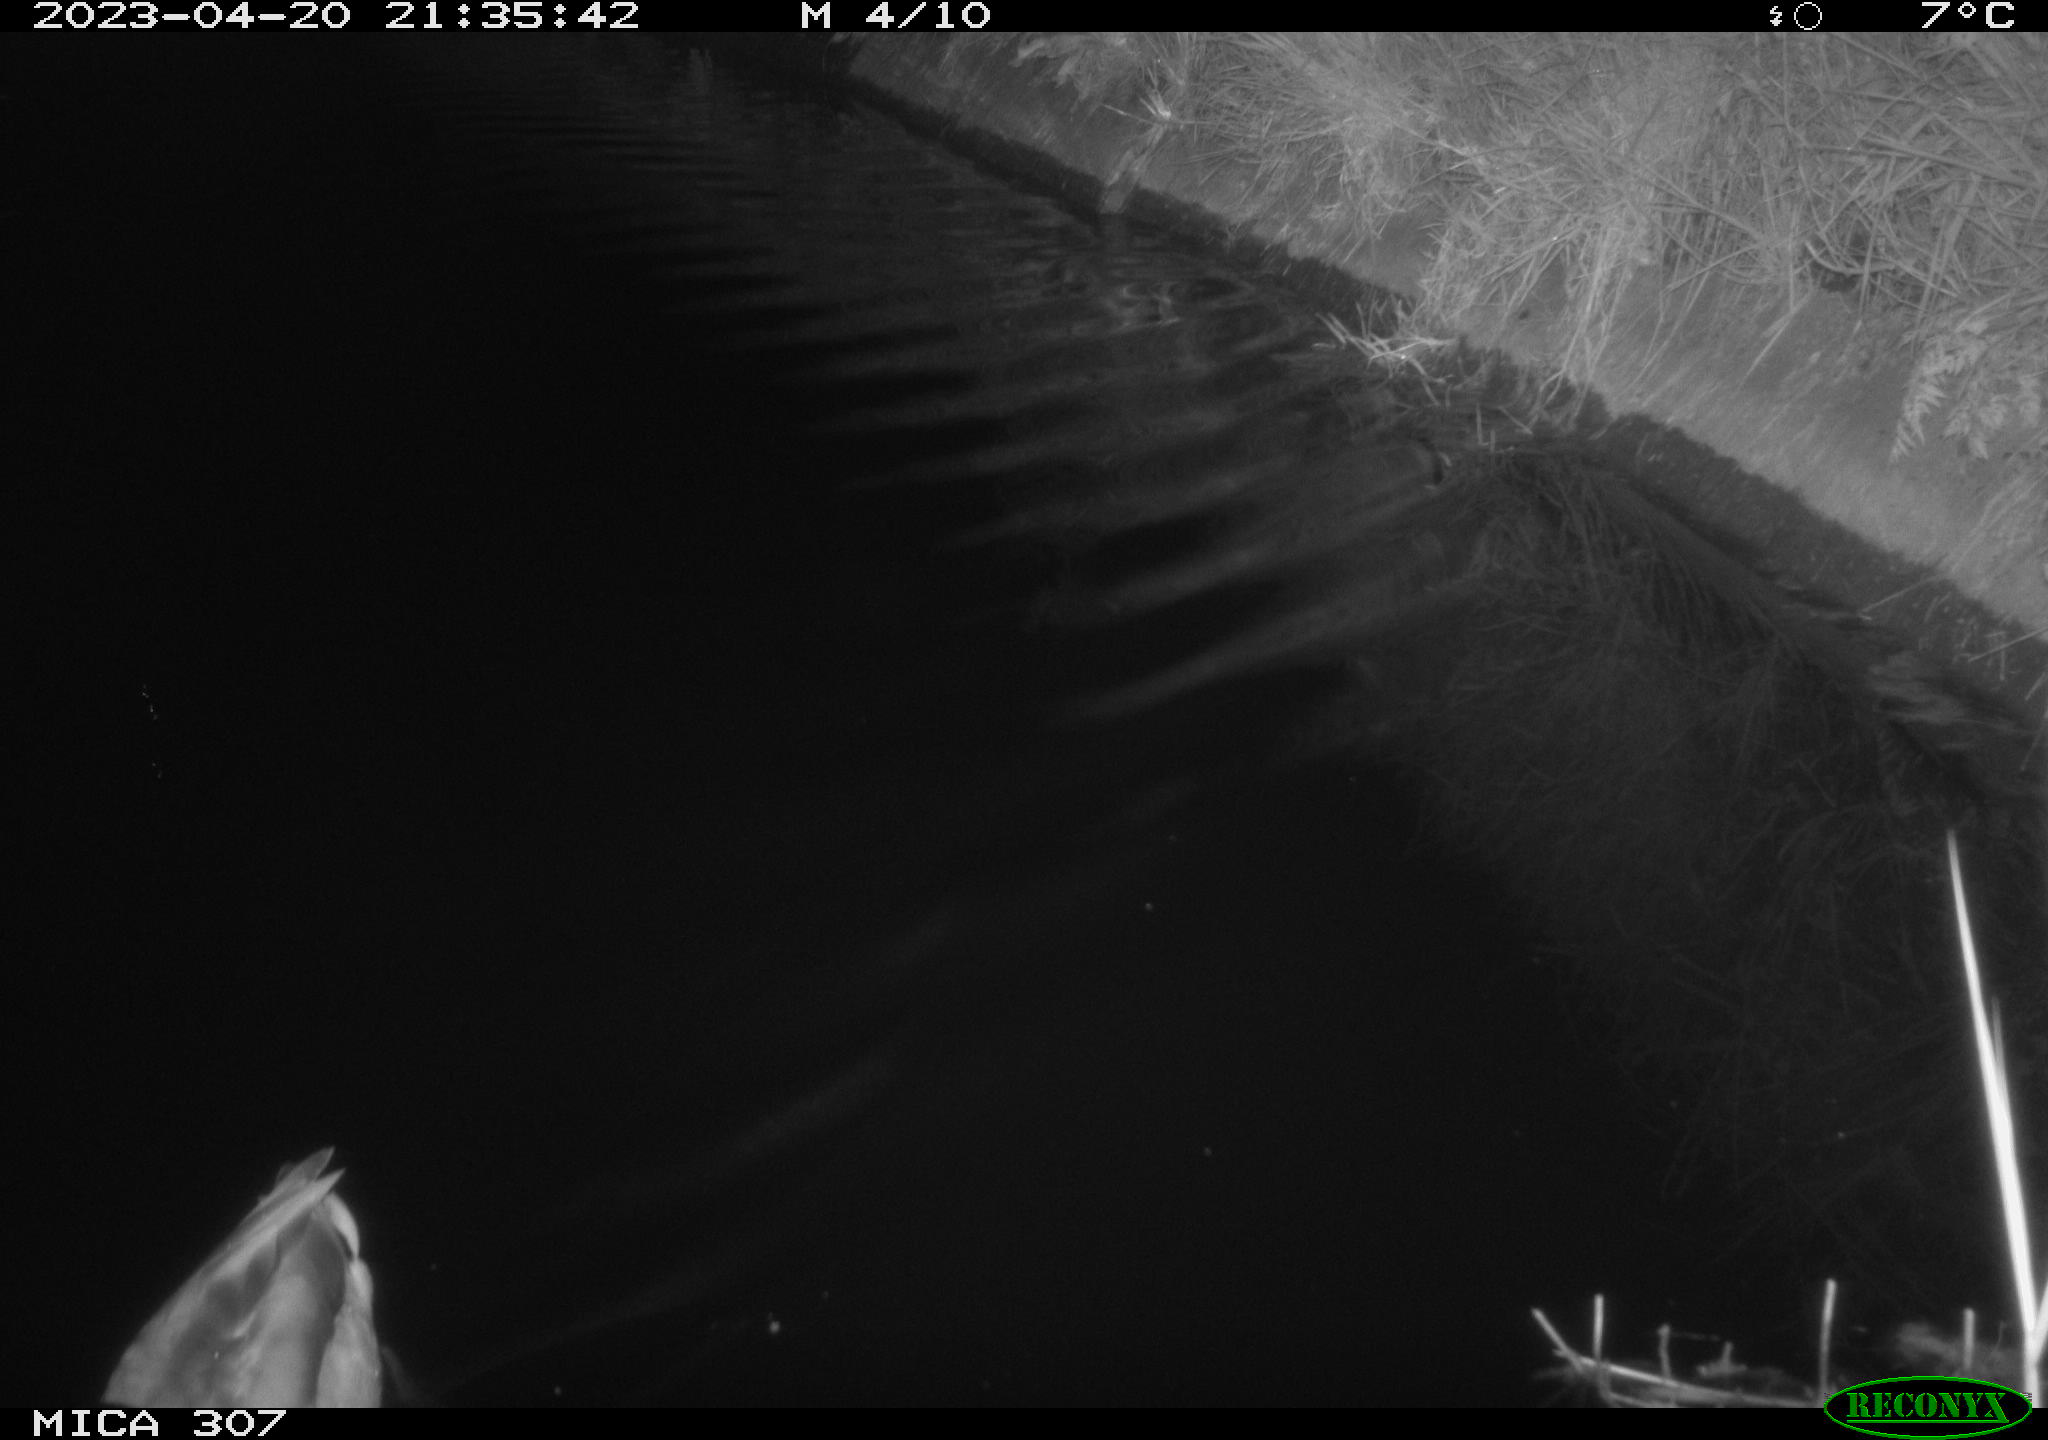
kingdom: Animalia
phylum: Chordata
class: Aves
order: Anseriformes
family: Anatidae
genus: Anas
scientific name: Anas
